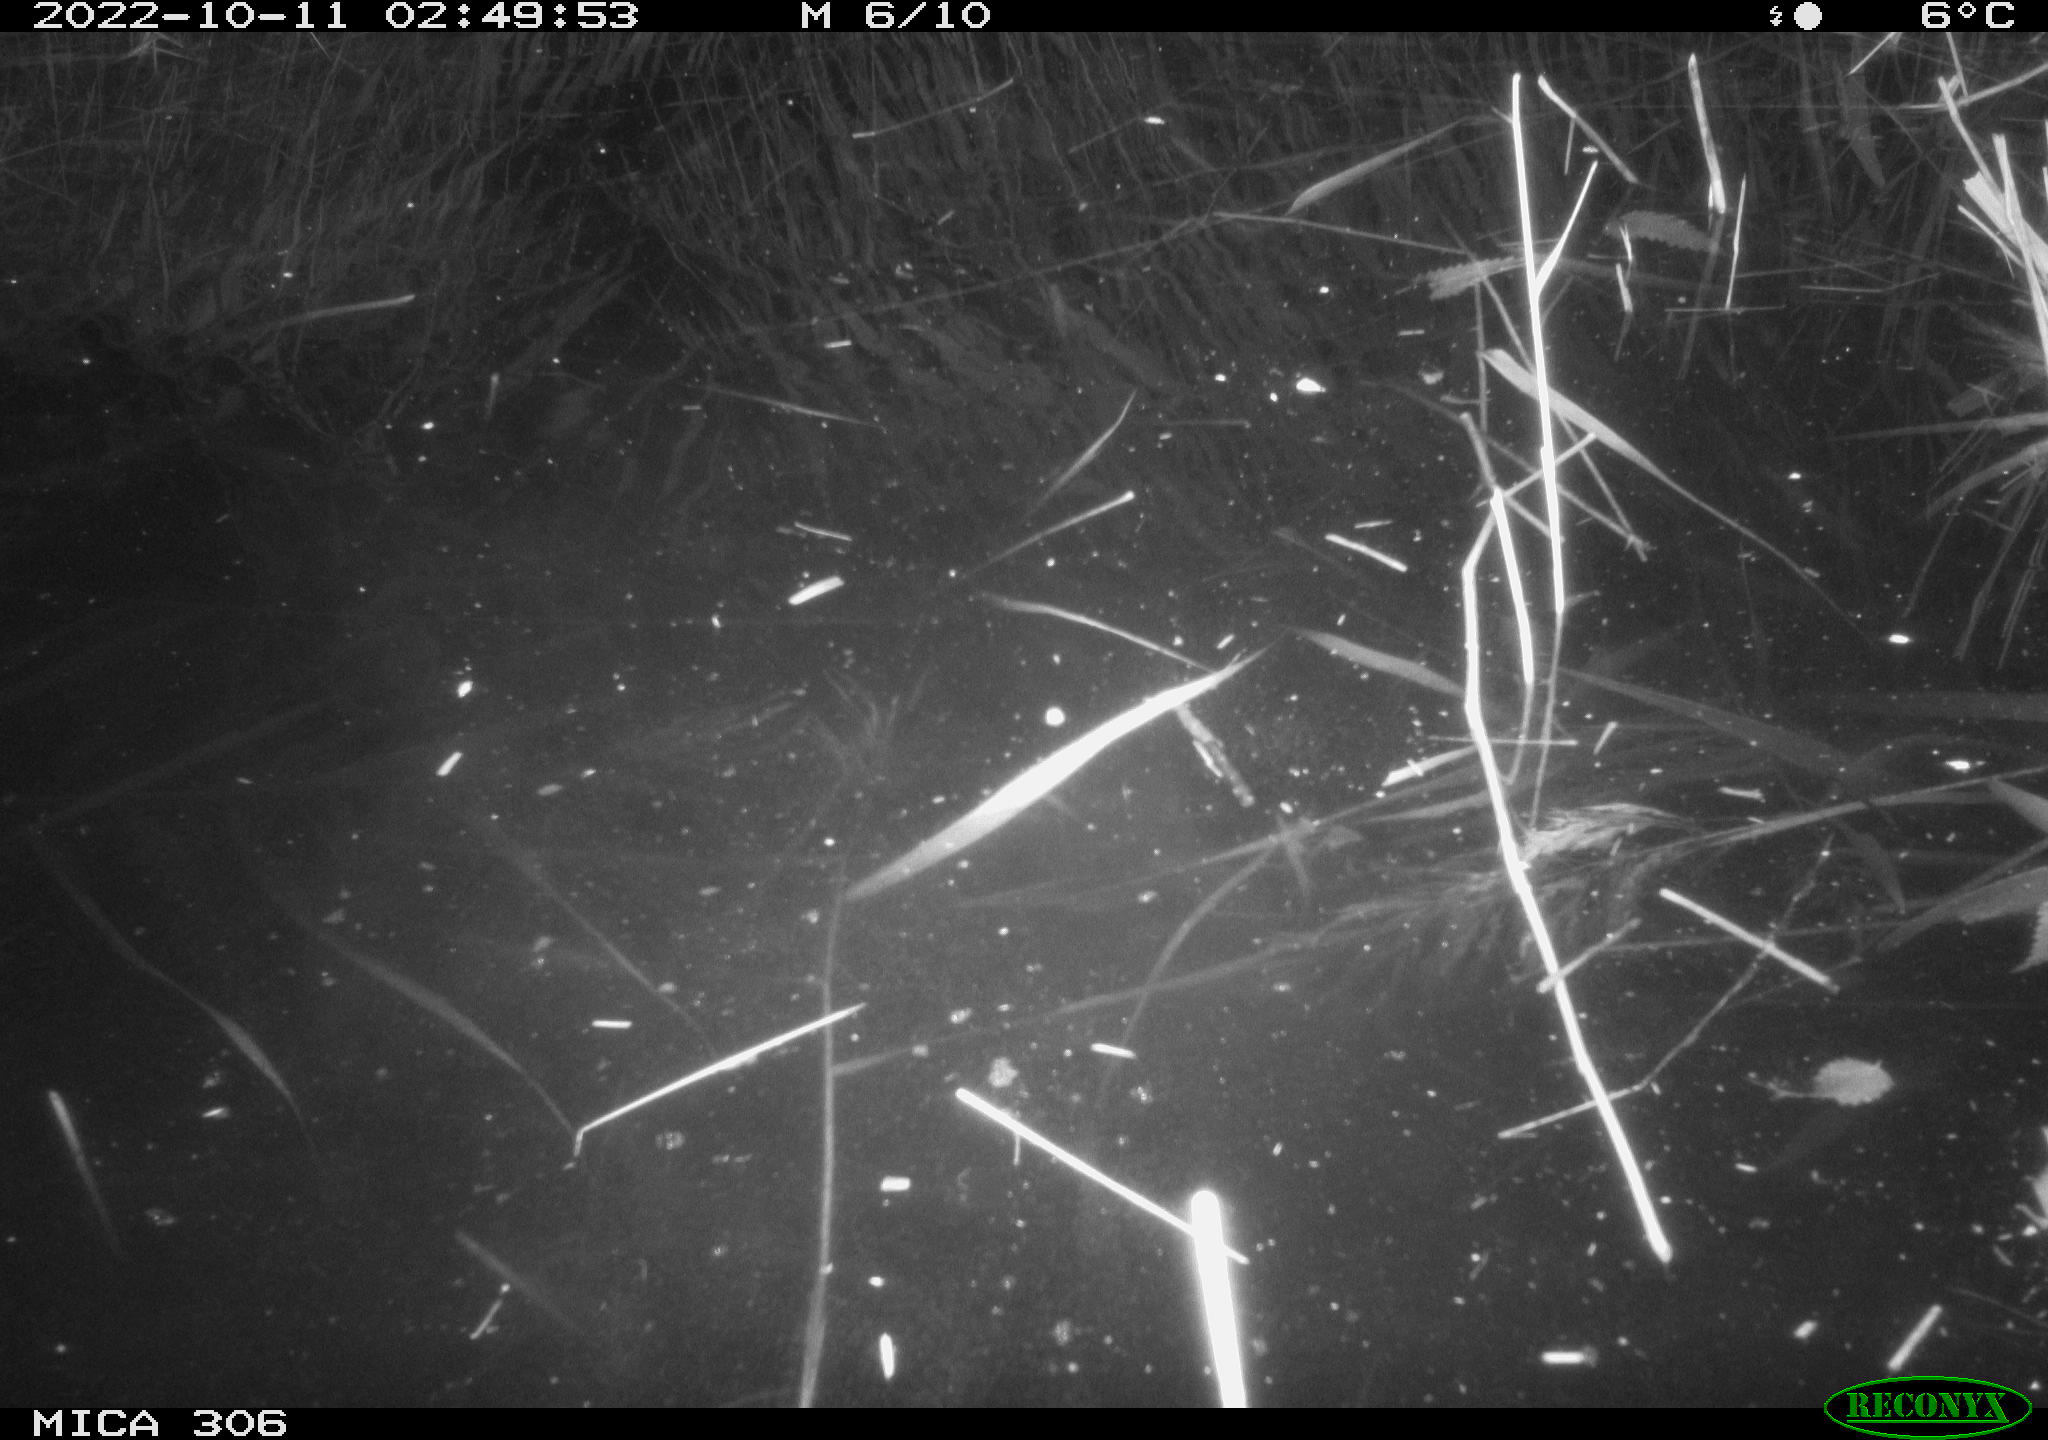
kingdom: Animalia
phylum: Chordata
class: Mammalia
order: Rodentia
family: Muridae
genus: Rattus
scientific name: Rattus norvegicus
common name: Brown rat
